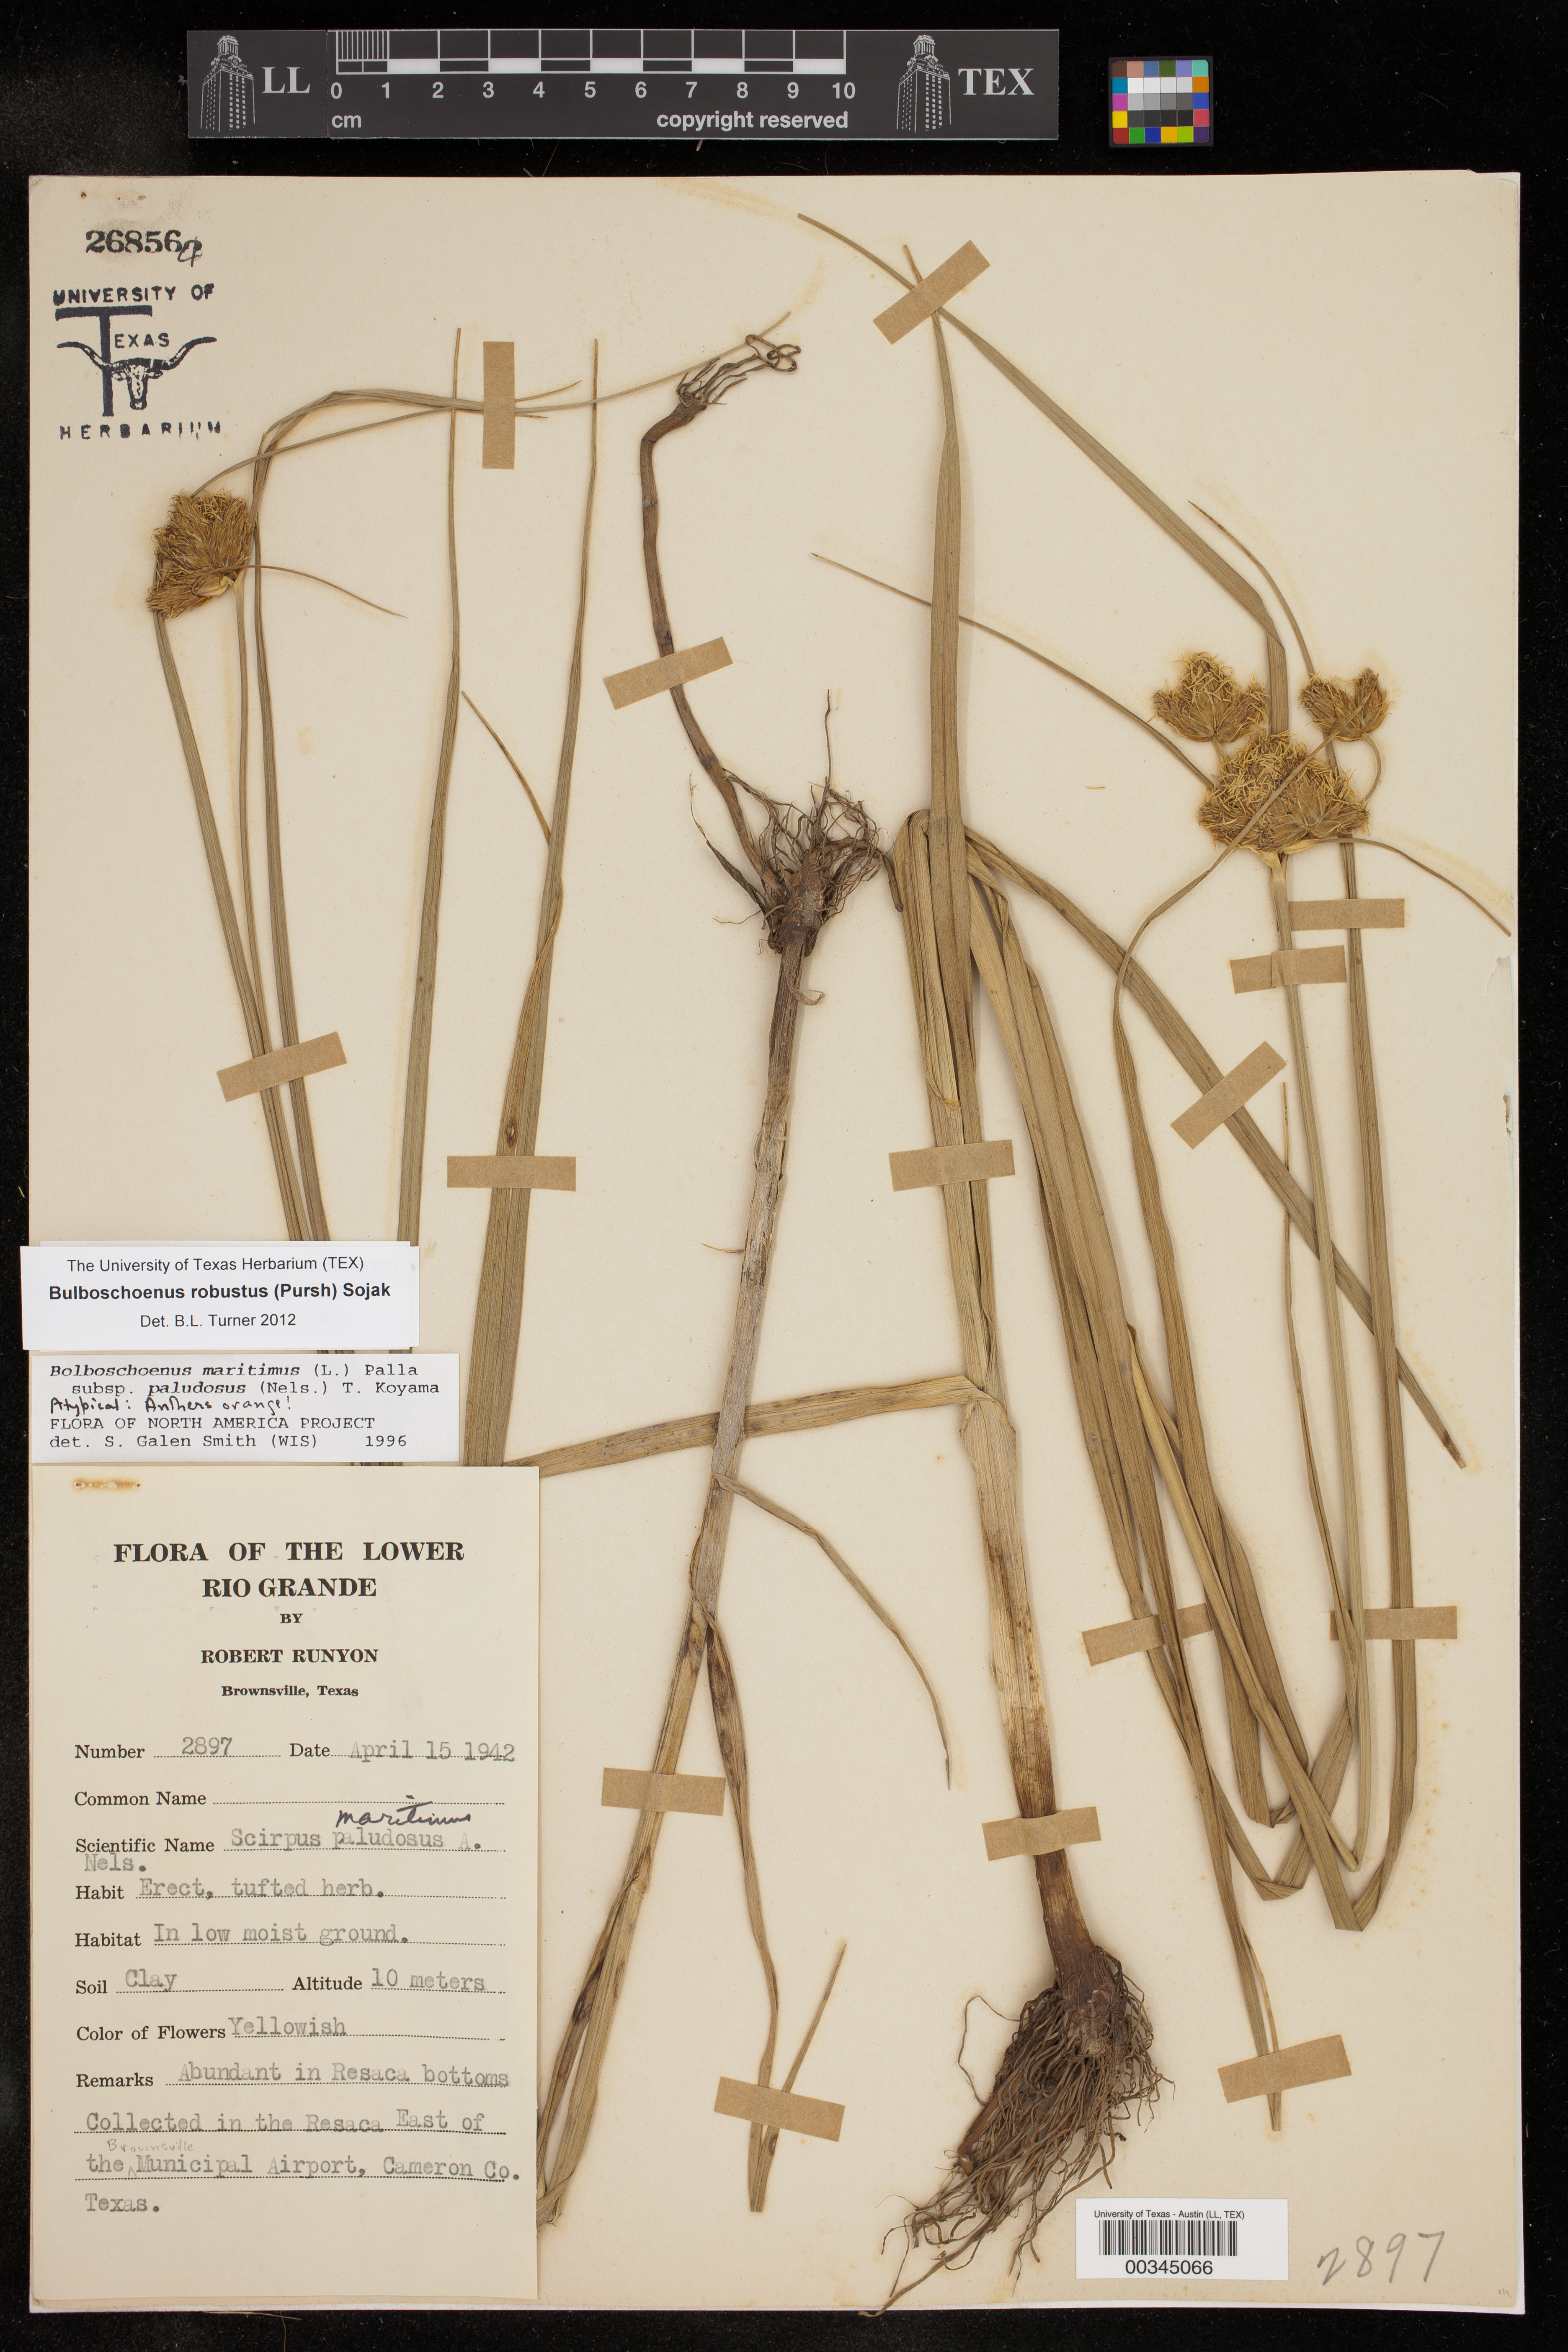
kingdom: Plantae
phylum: Tracheophyta
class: Liliopsida
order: Poales
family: Cyperaceae
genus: Bolboschoenus
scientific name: Bolboschoenus robustus
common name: Seacoast bulrush
